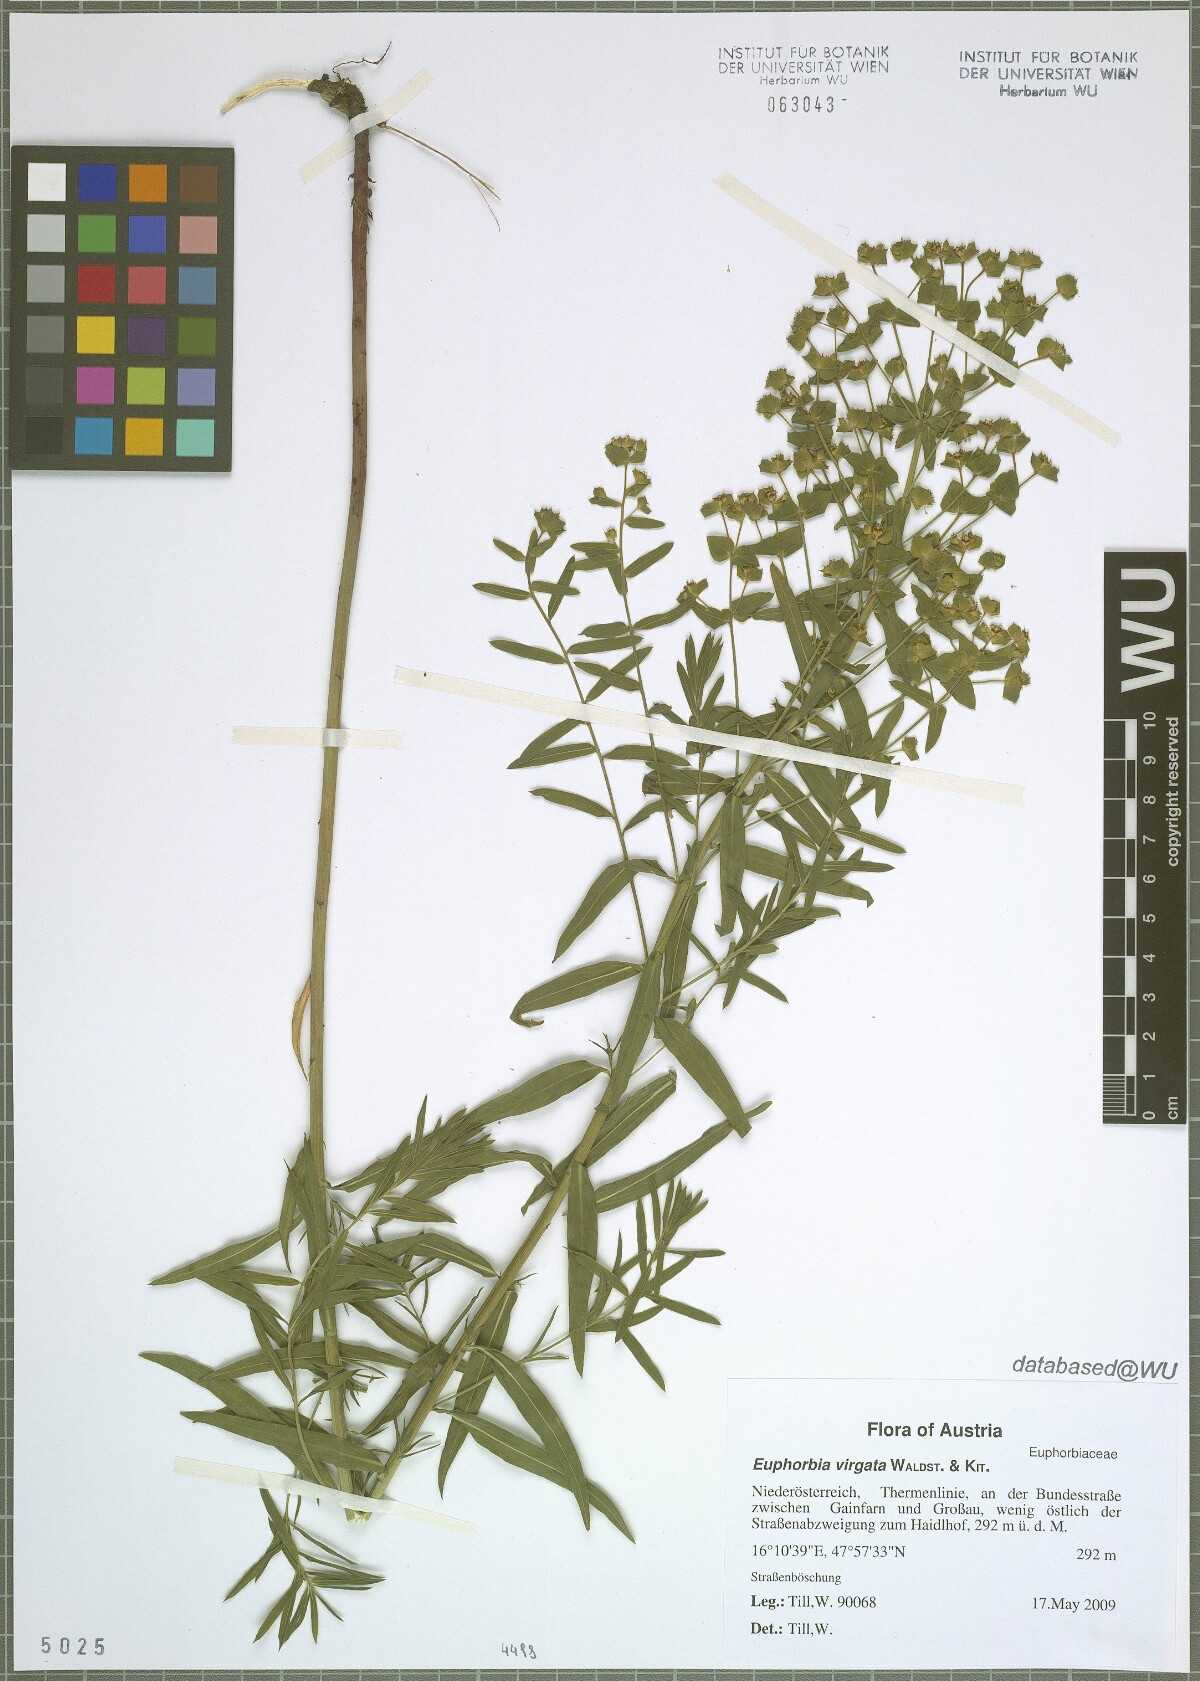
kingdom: Plantae
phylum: Tracheophyta
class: Magnoliopsida
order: Malpighiales
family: Euphorbiaceae
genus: Euphorbia
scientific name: Euphorbia virgata
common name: Leafy spurge
